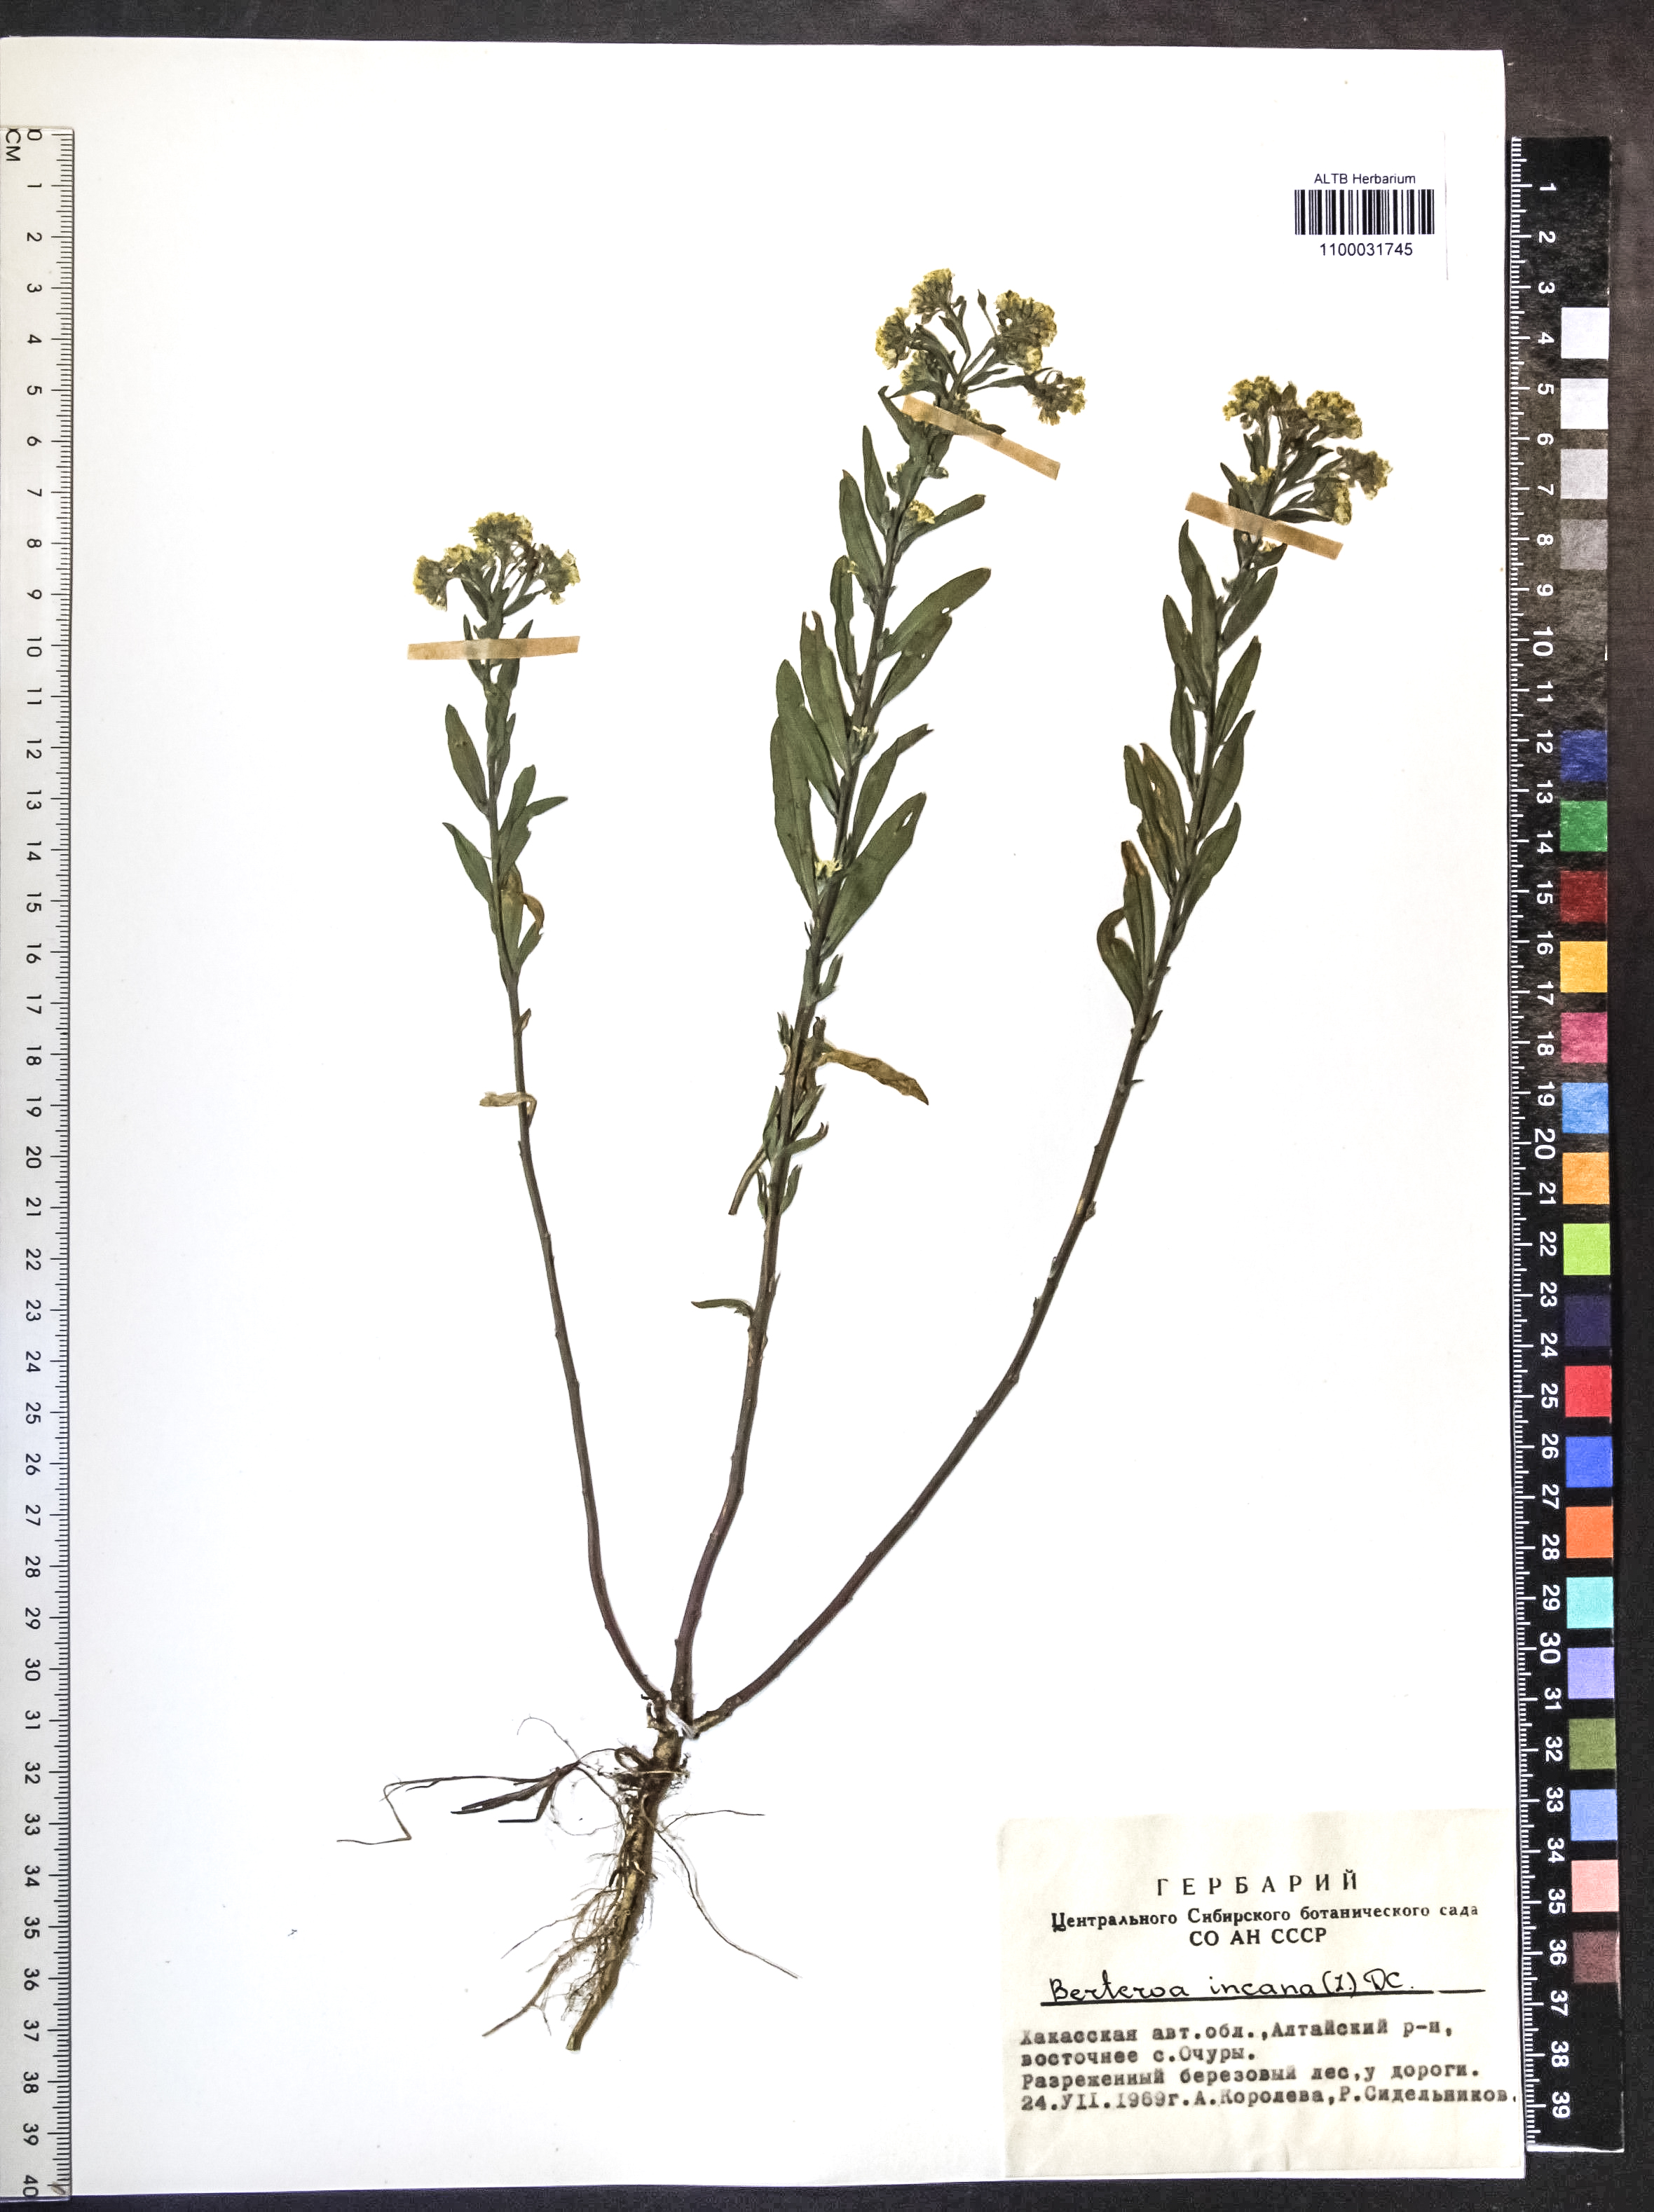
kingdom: Plantae
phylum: Tracheophyta
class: Magnoliopsida
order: Brassicales
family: Brassicaceae
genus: Berteroa
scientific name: Berteroa incana
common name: Hoary alison
